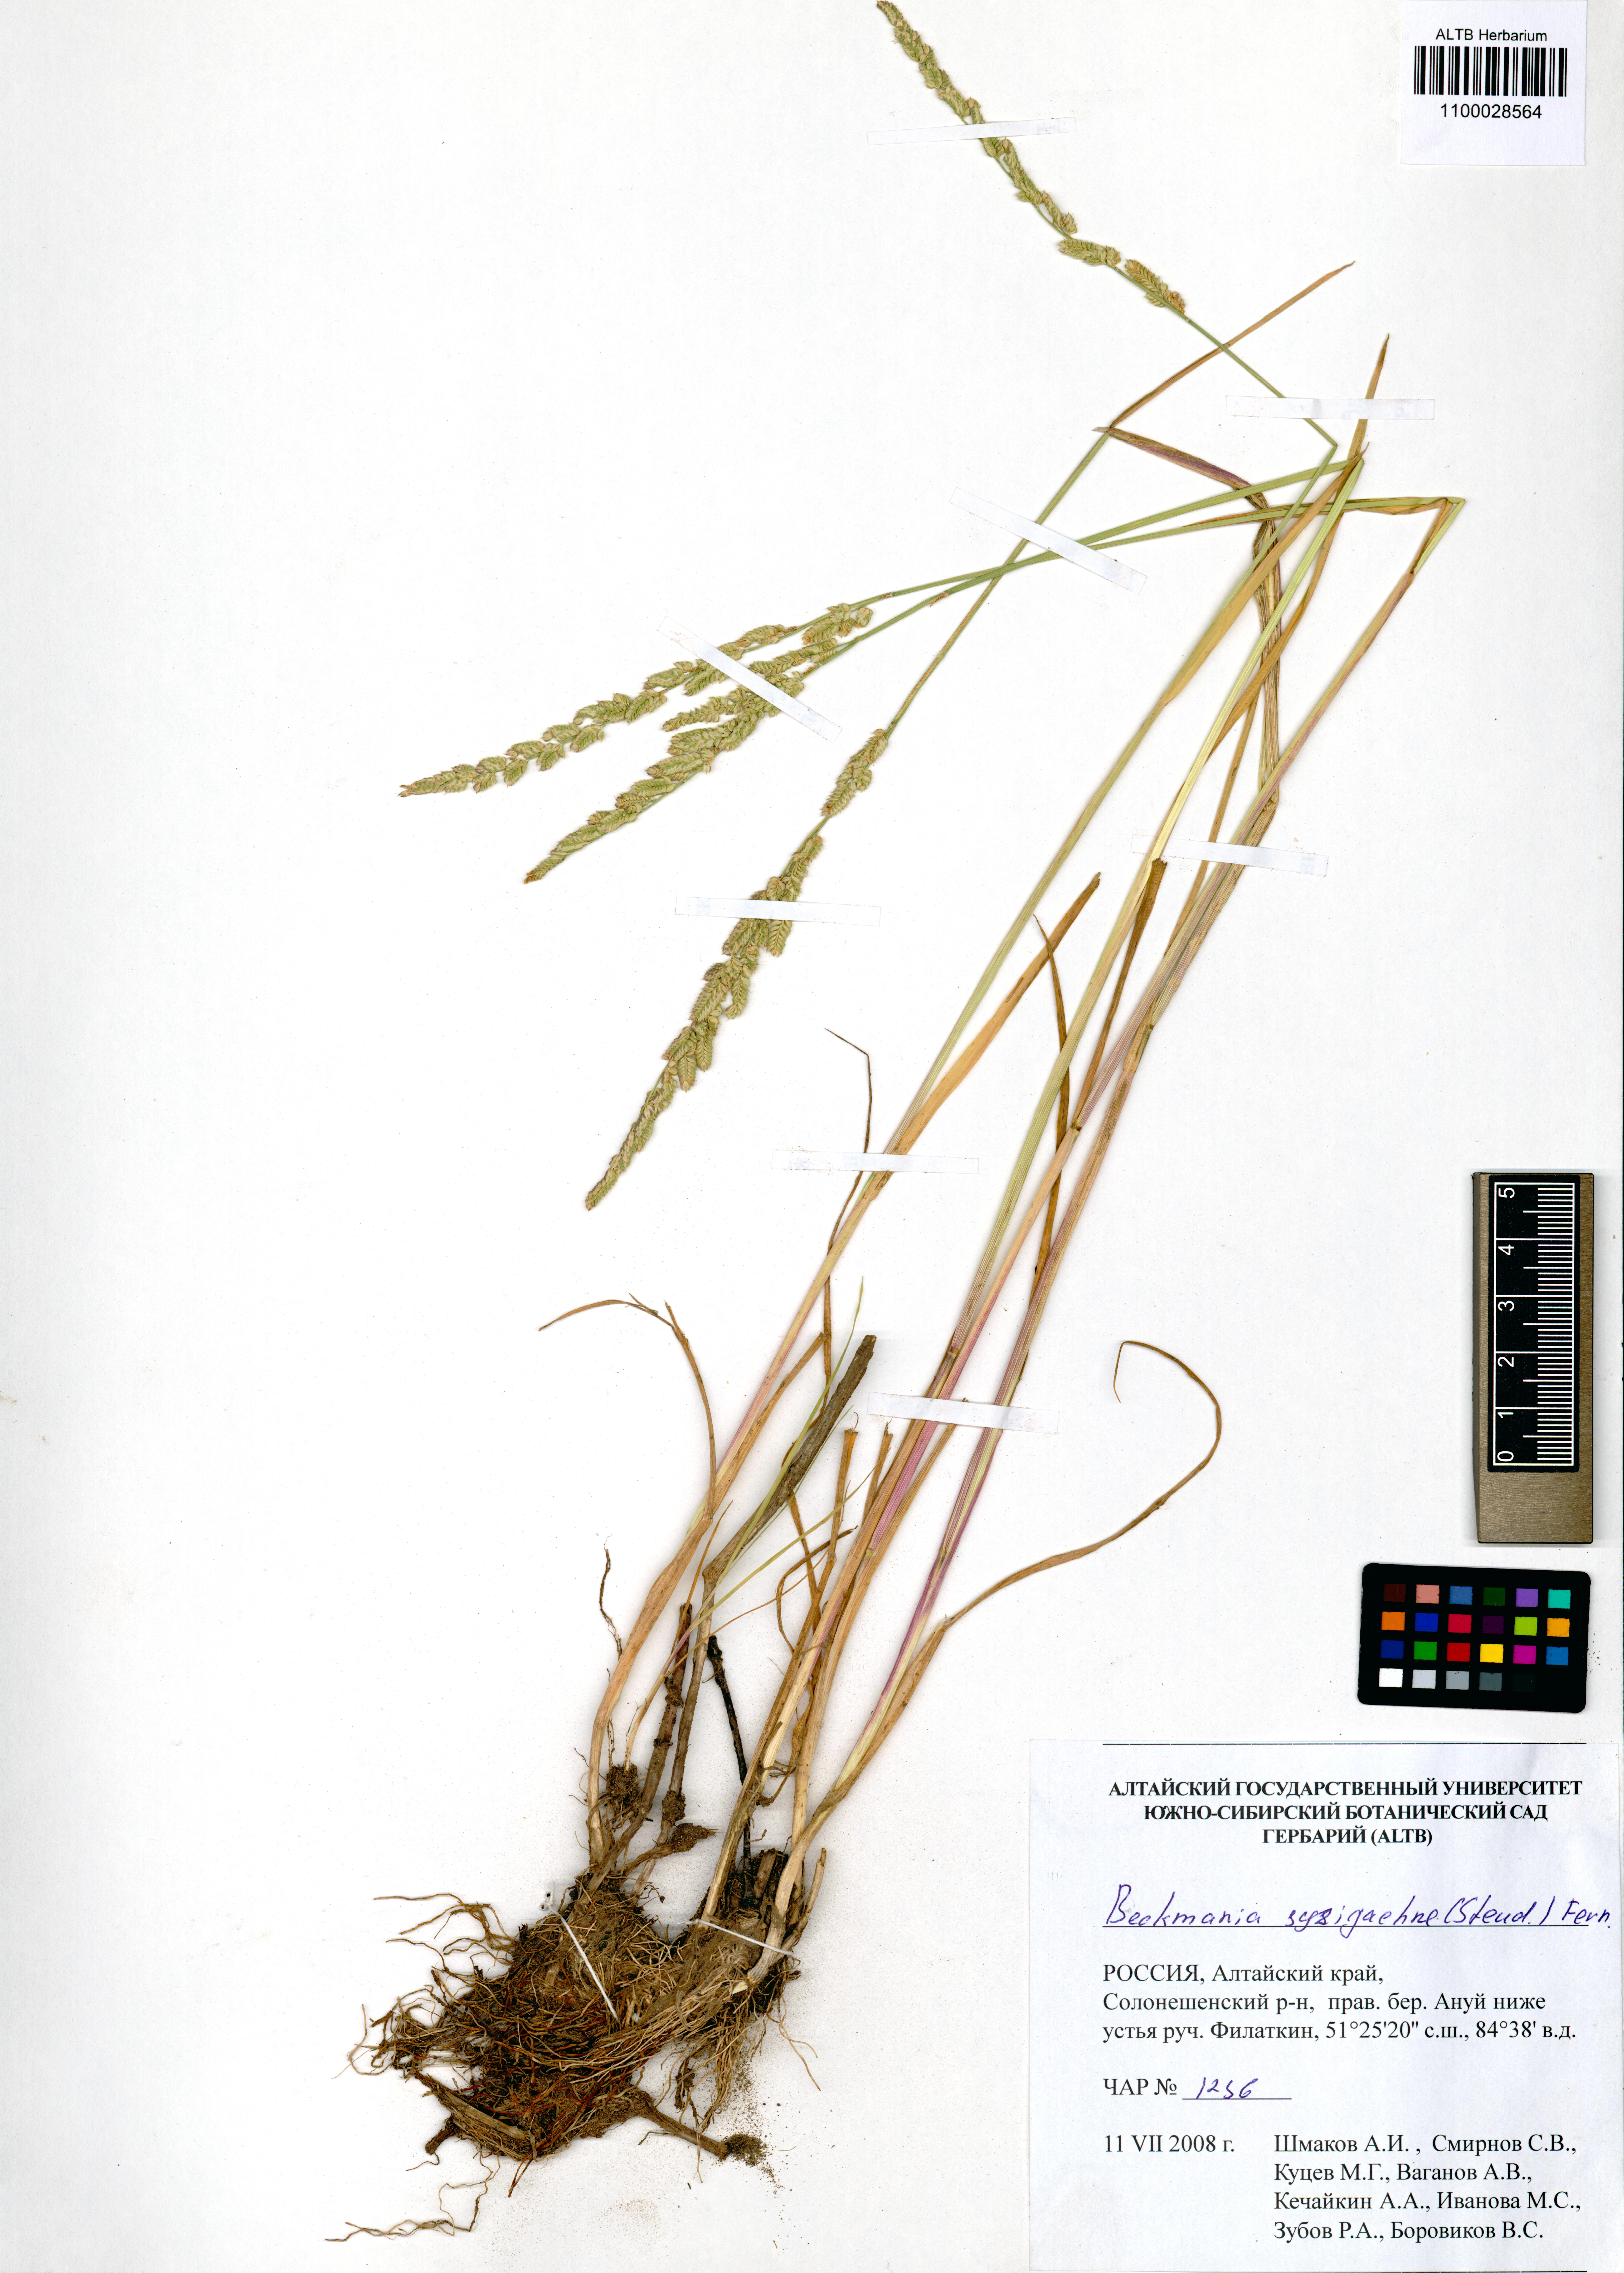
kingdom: Plantae
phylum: Tracheophyta
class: Liliopsida
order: Poales
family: Poaceae
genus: Beckmannia
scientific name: Beckmannia syzigachne
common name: American slough-grass
